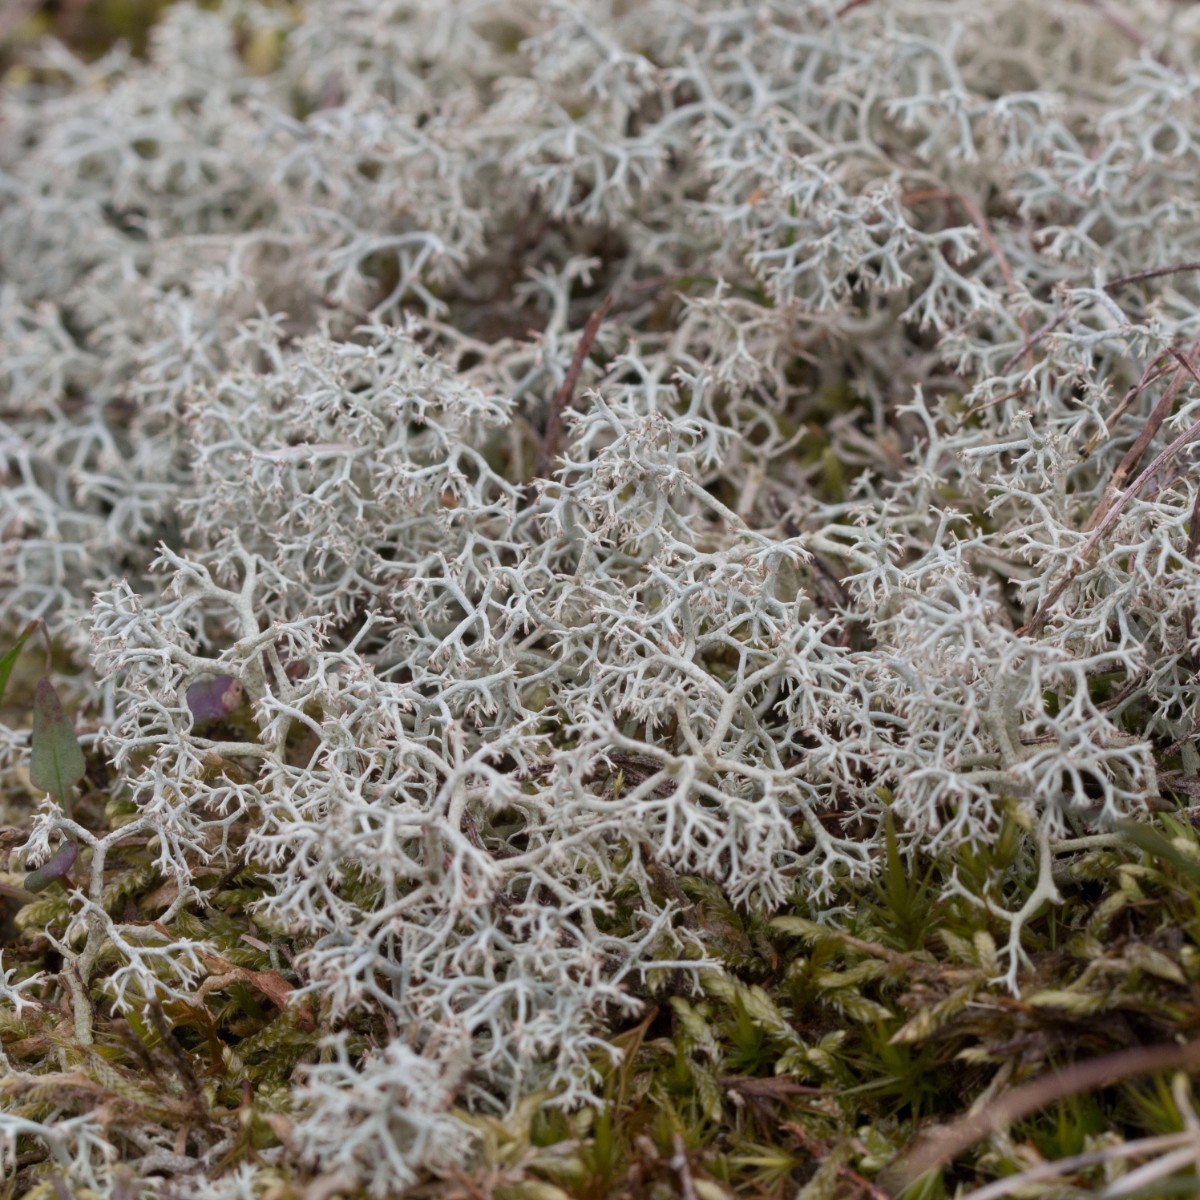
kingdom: Fungi
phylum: Ascomycota
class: Lecanoromycetes
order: Lecanorales
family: Cladoniaceae
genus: Cladonia
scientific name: Cladonia portentosa
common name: hede-rensdyrlav
